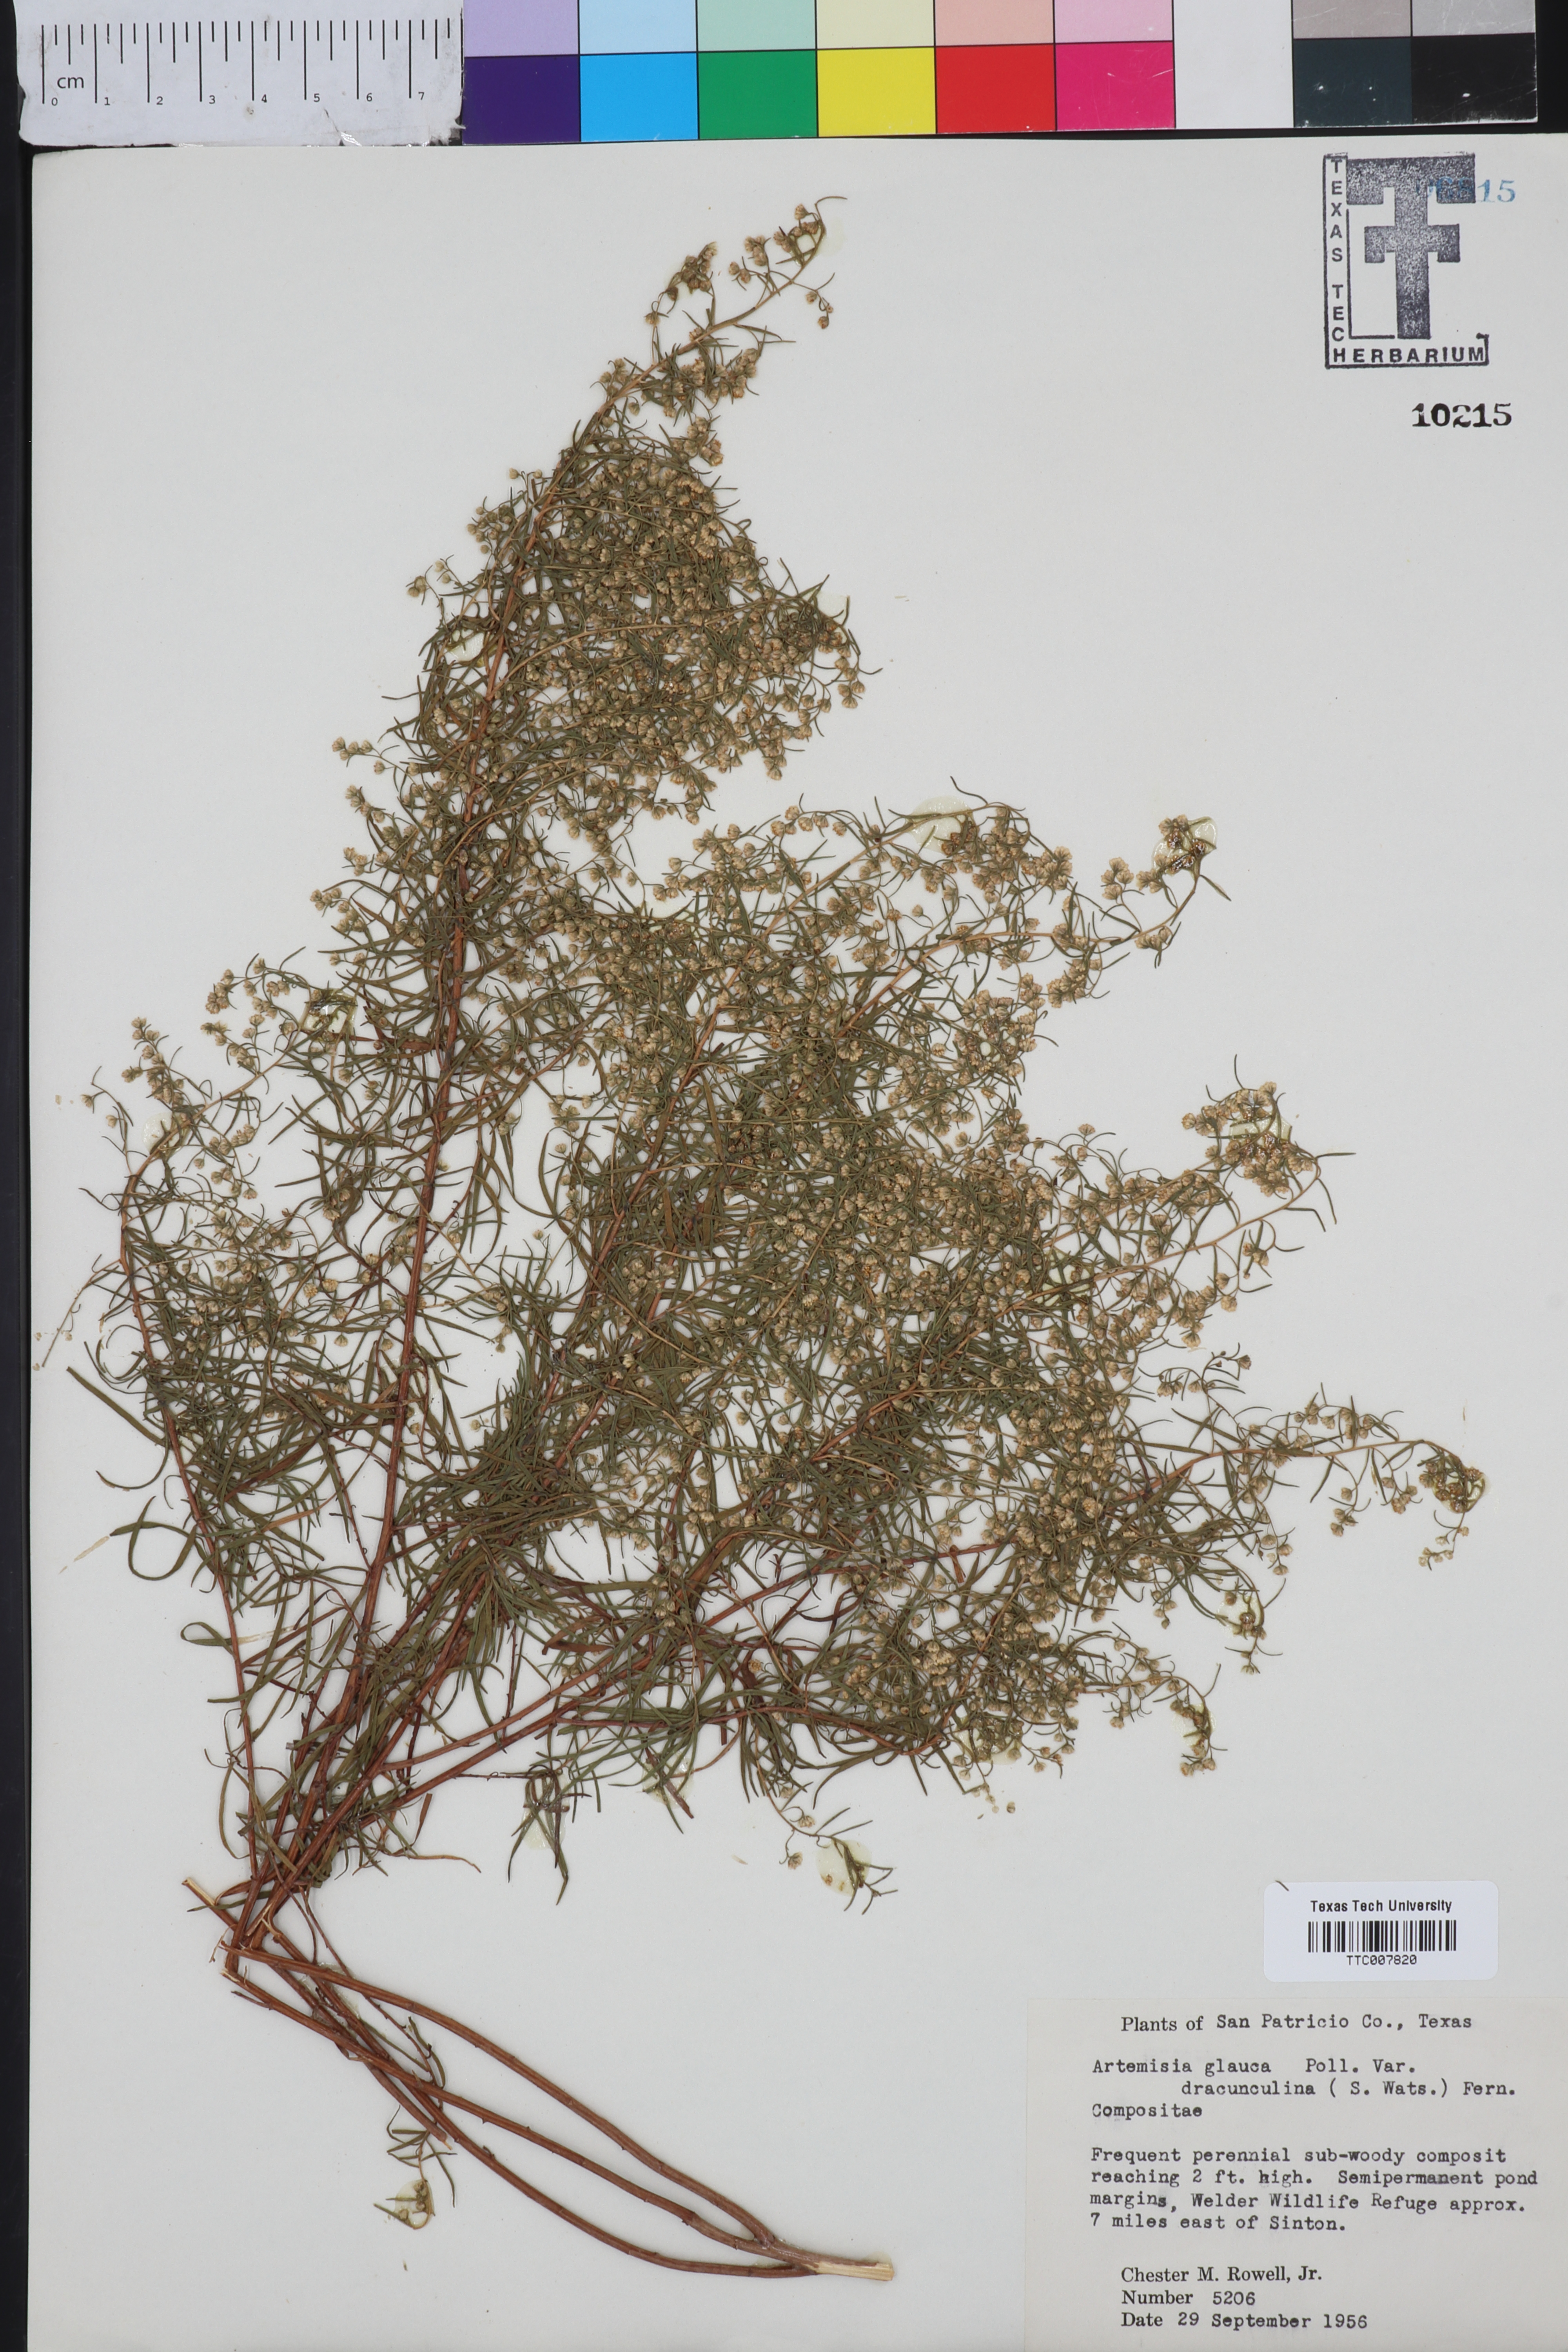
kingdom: Plantae
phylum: Tracheophyta
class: Magnoliopsida
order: Asterales
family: Asteraceae
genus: Artemisia
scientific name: Artemisia dracunculus
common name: Tarragon
